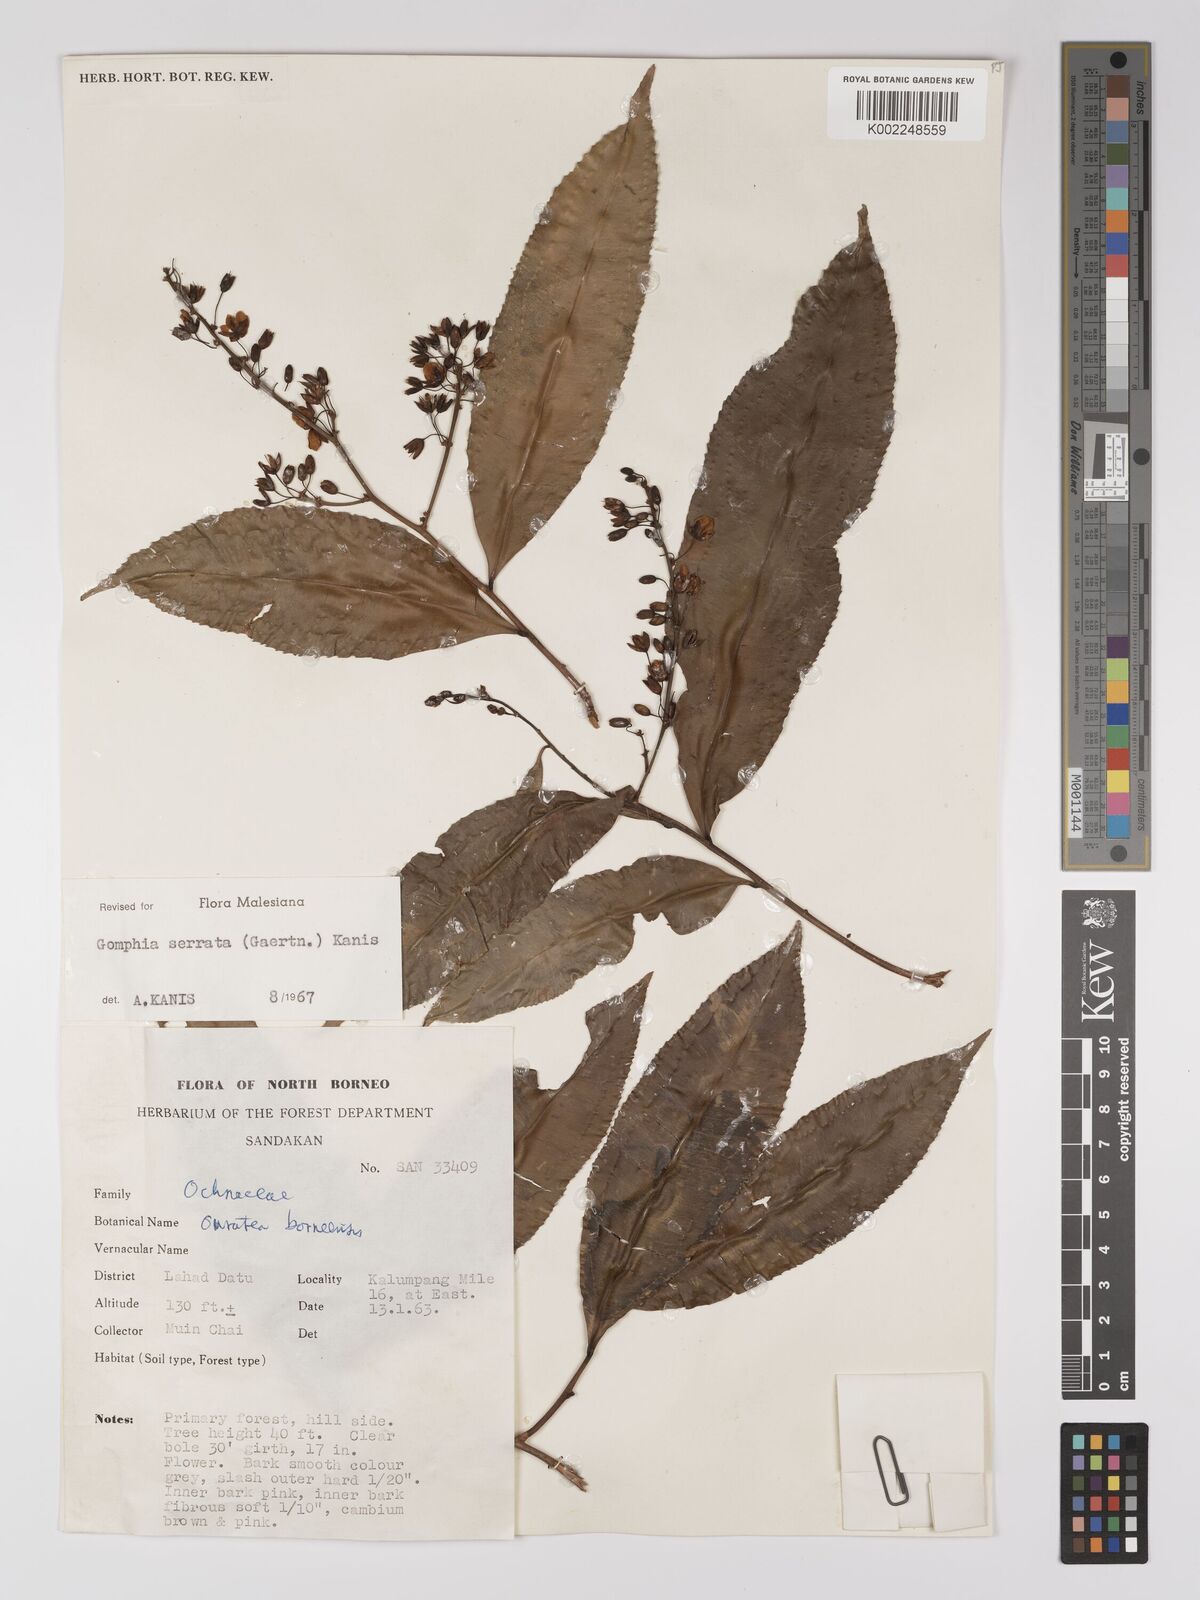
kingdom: Plantae
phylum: Tracheophyta
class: Magnoliopsida
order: Malpighiales
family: Ochnaceae
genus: Gomphia
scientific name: Gomphia serrata
